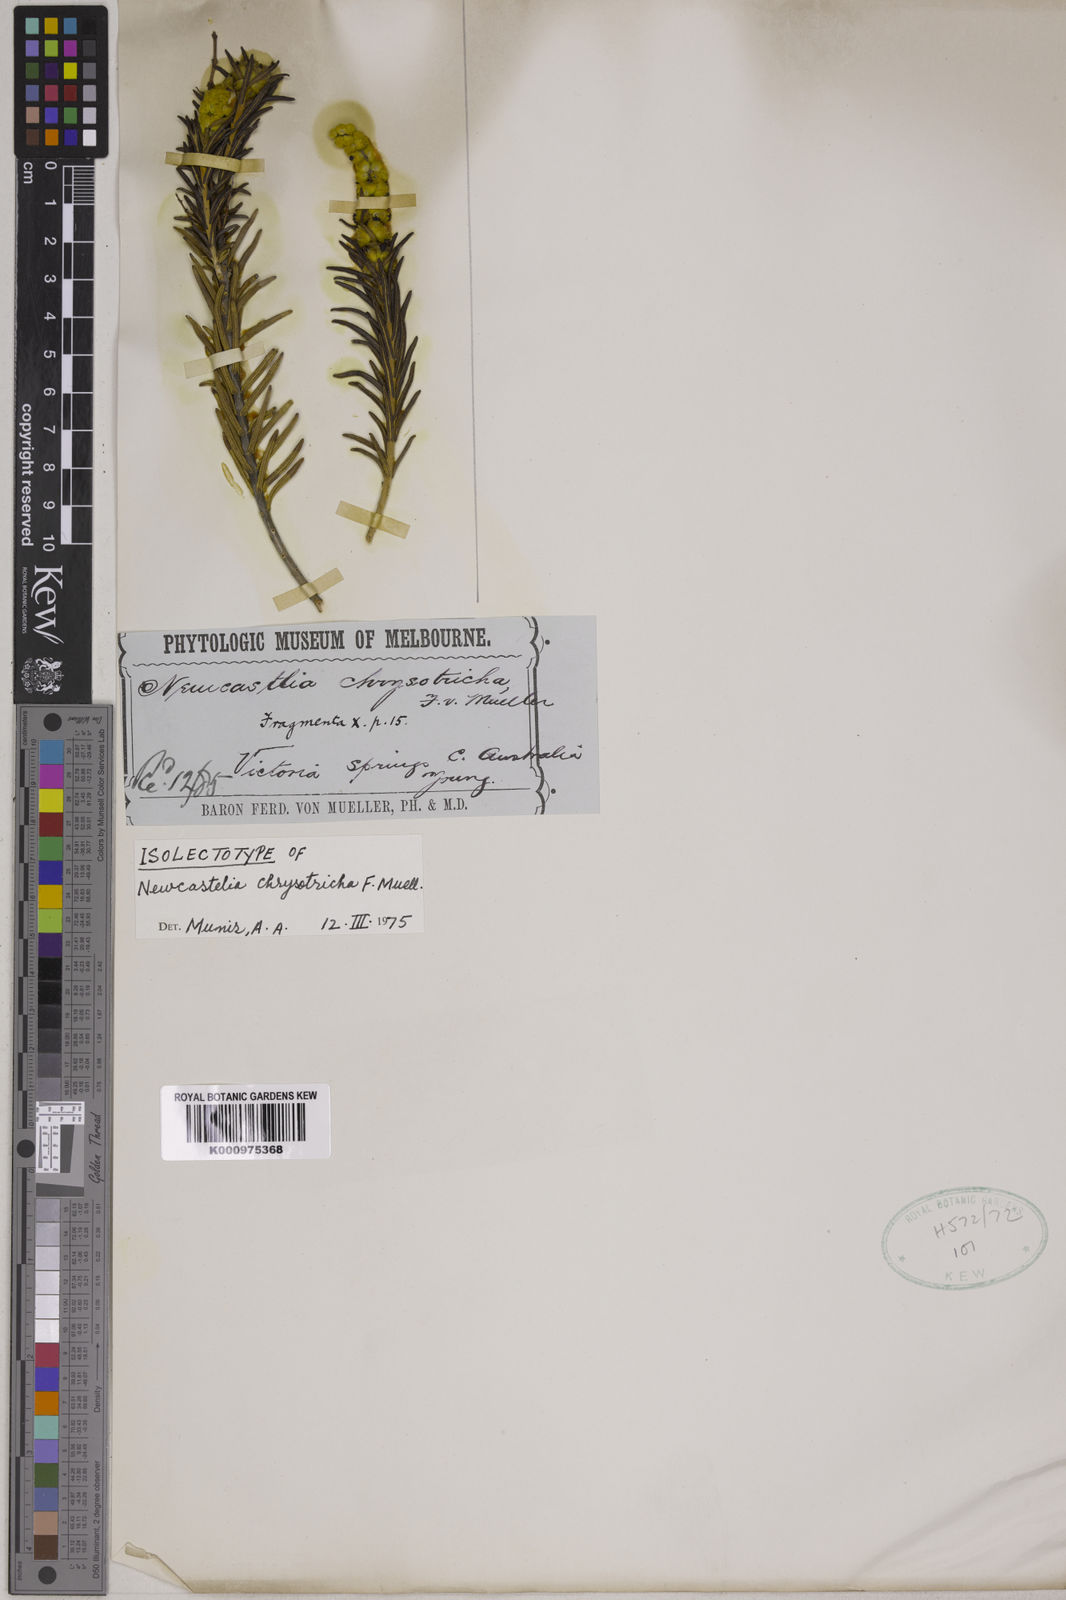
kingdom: Plantae
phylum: Tracheophyta
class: Magnoliopsida
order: Lamiales
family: Lamiaceae
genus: Apatelantha
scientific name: Apatelantha chrysotricha
